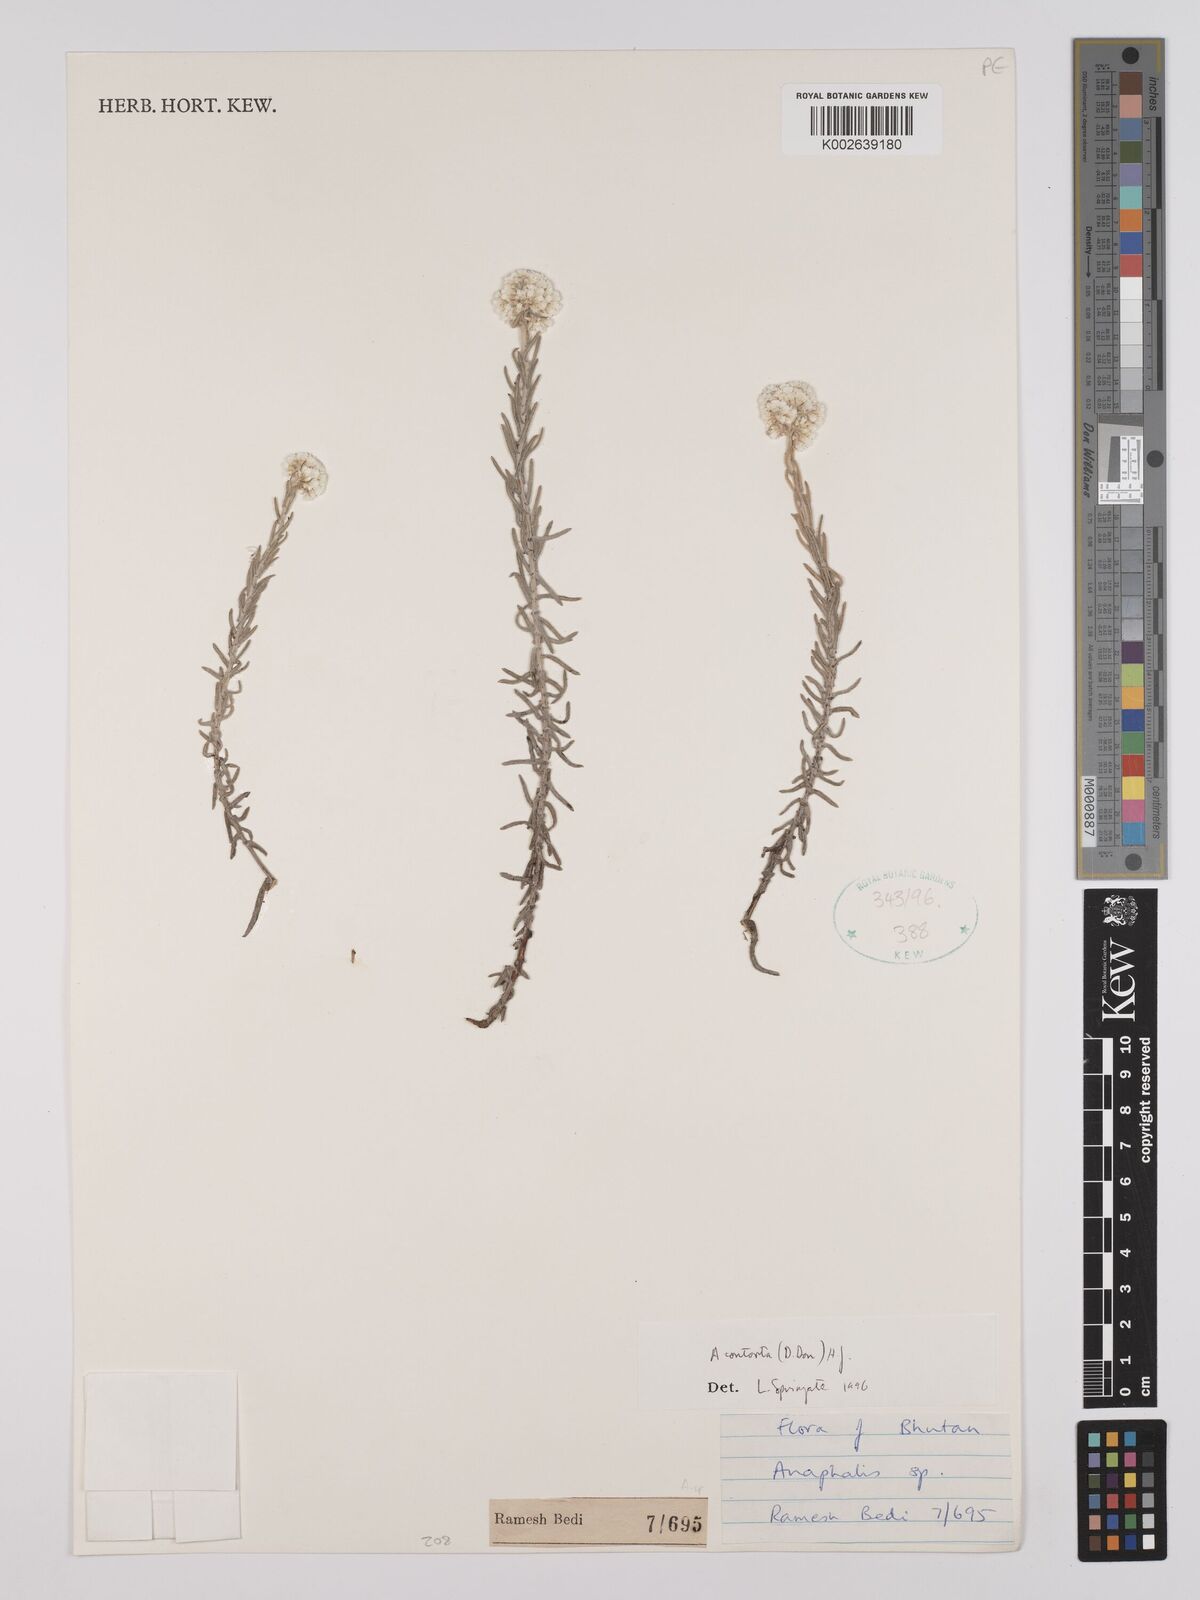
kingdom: Plantae
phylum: Tracheophyta
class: Magnoliopsida
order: Asterales
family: Asteraceae
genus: Anaphalis
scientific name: Anaphalis contorta
